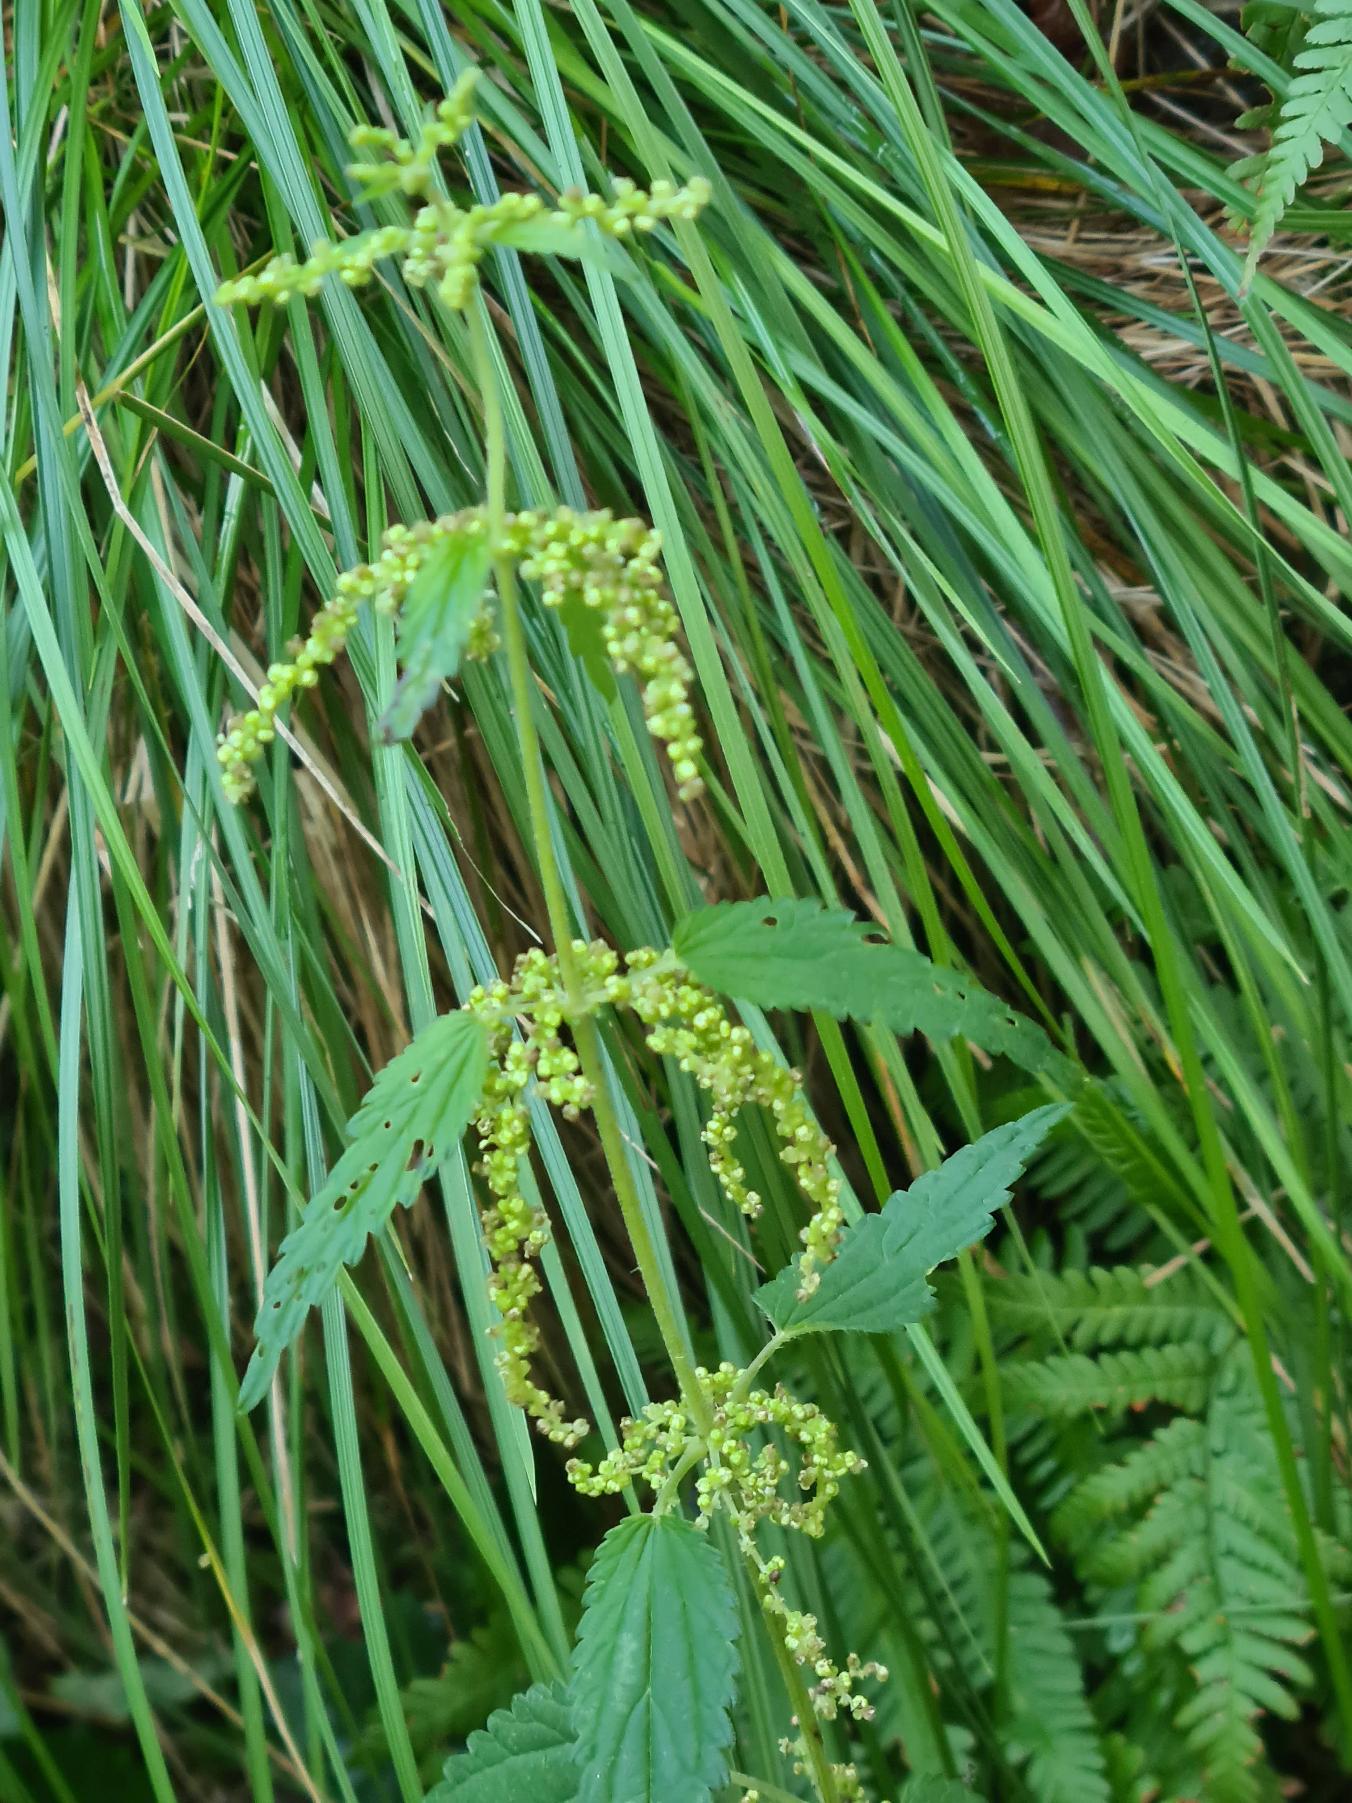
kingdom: Plantae
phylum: Tracheophyta
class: Magnoliopsida
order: Rosales
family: Urticaceae
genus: Urtica
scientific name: Urtica dioica
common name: Stor nælde
